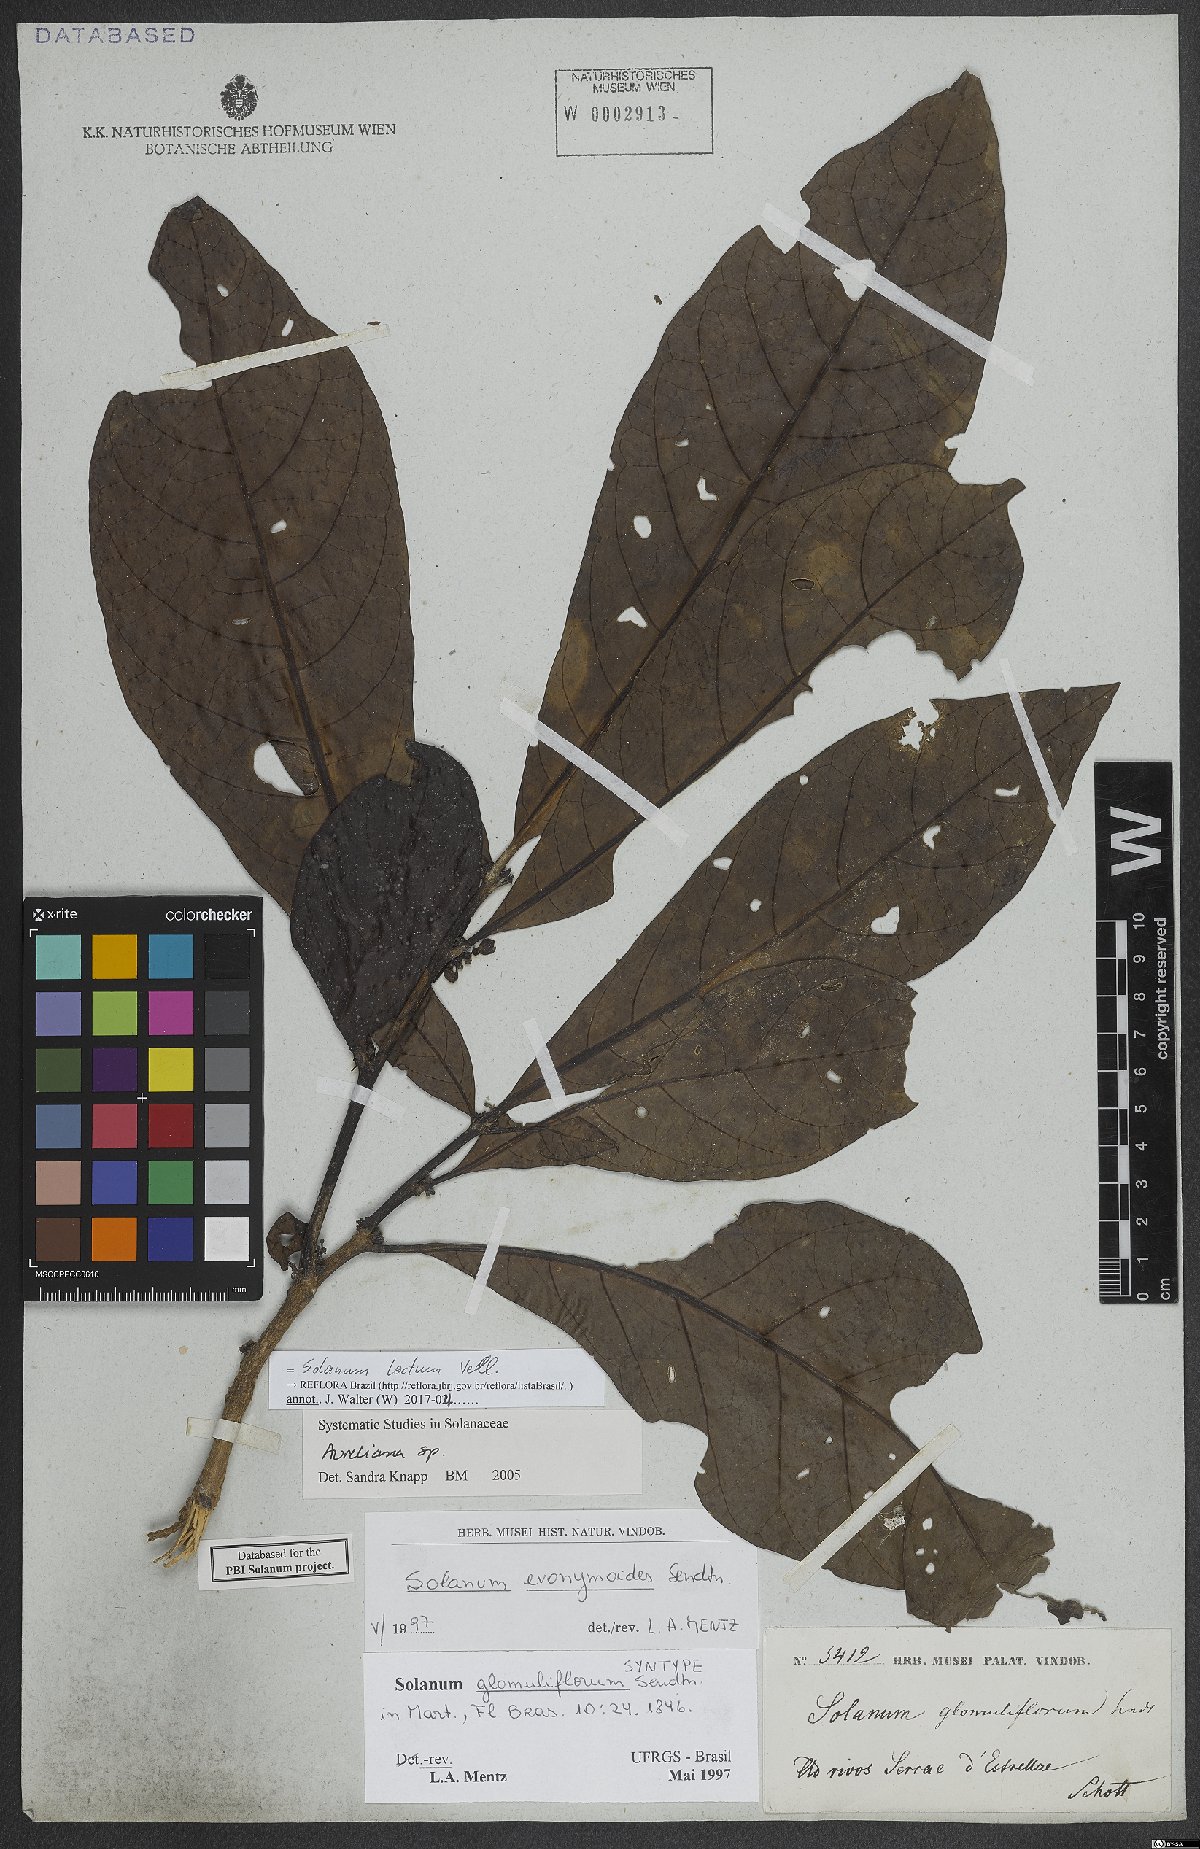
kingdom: Plantae
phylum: Tracheophyta
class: Magnoliopsida
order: Solanales
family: Solanaceae
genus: Solanum
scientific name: Solanum lacteum
